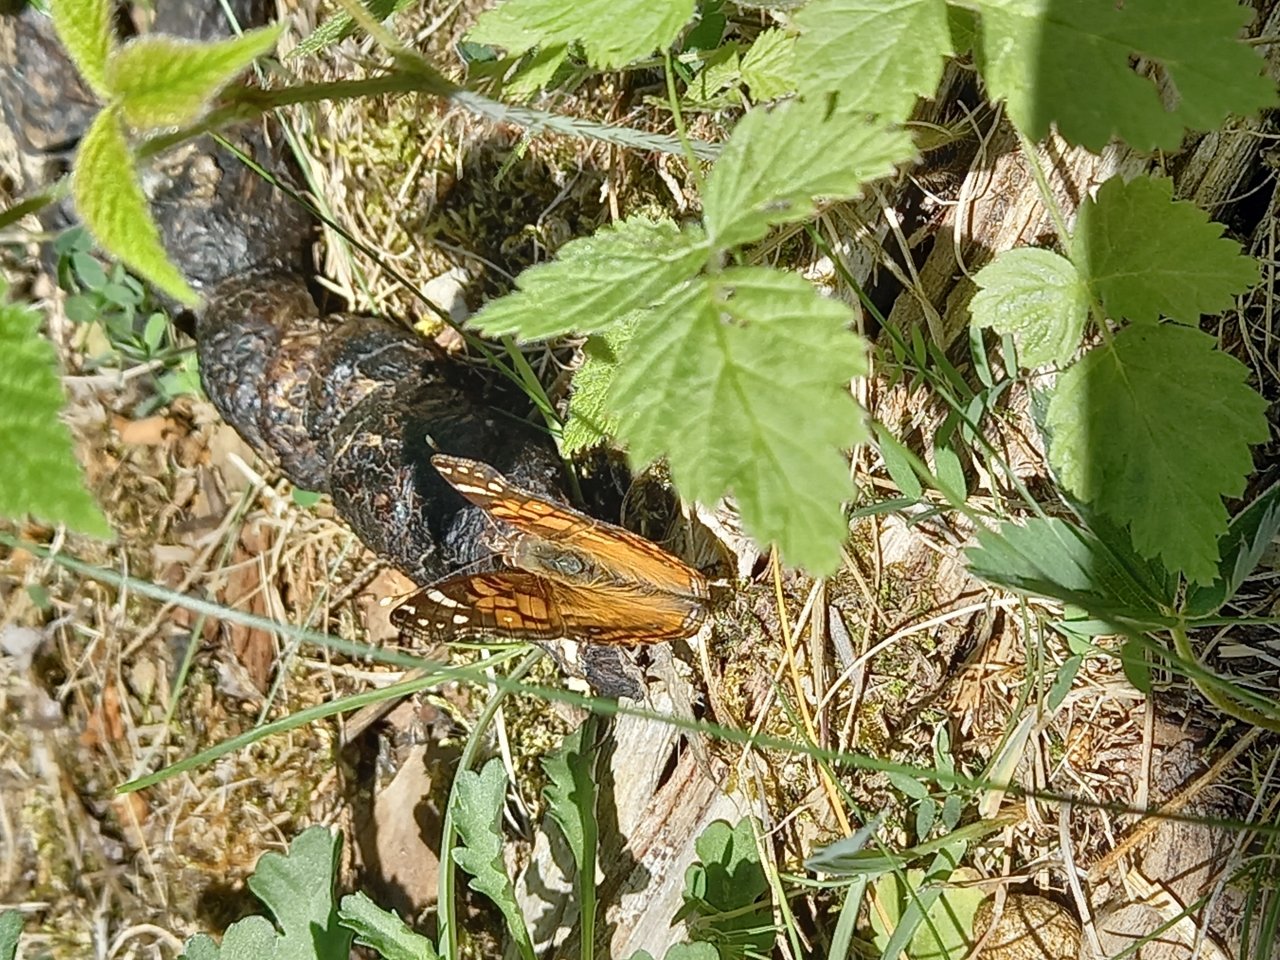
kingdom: Animalia
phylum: Arthropoda
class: Insecta
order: Lepidoptera
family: Nymphalidae
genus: Vanessa
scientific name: Vanessa virginiensis
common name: American Lady
